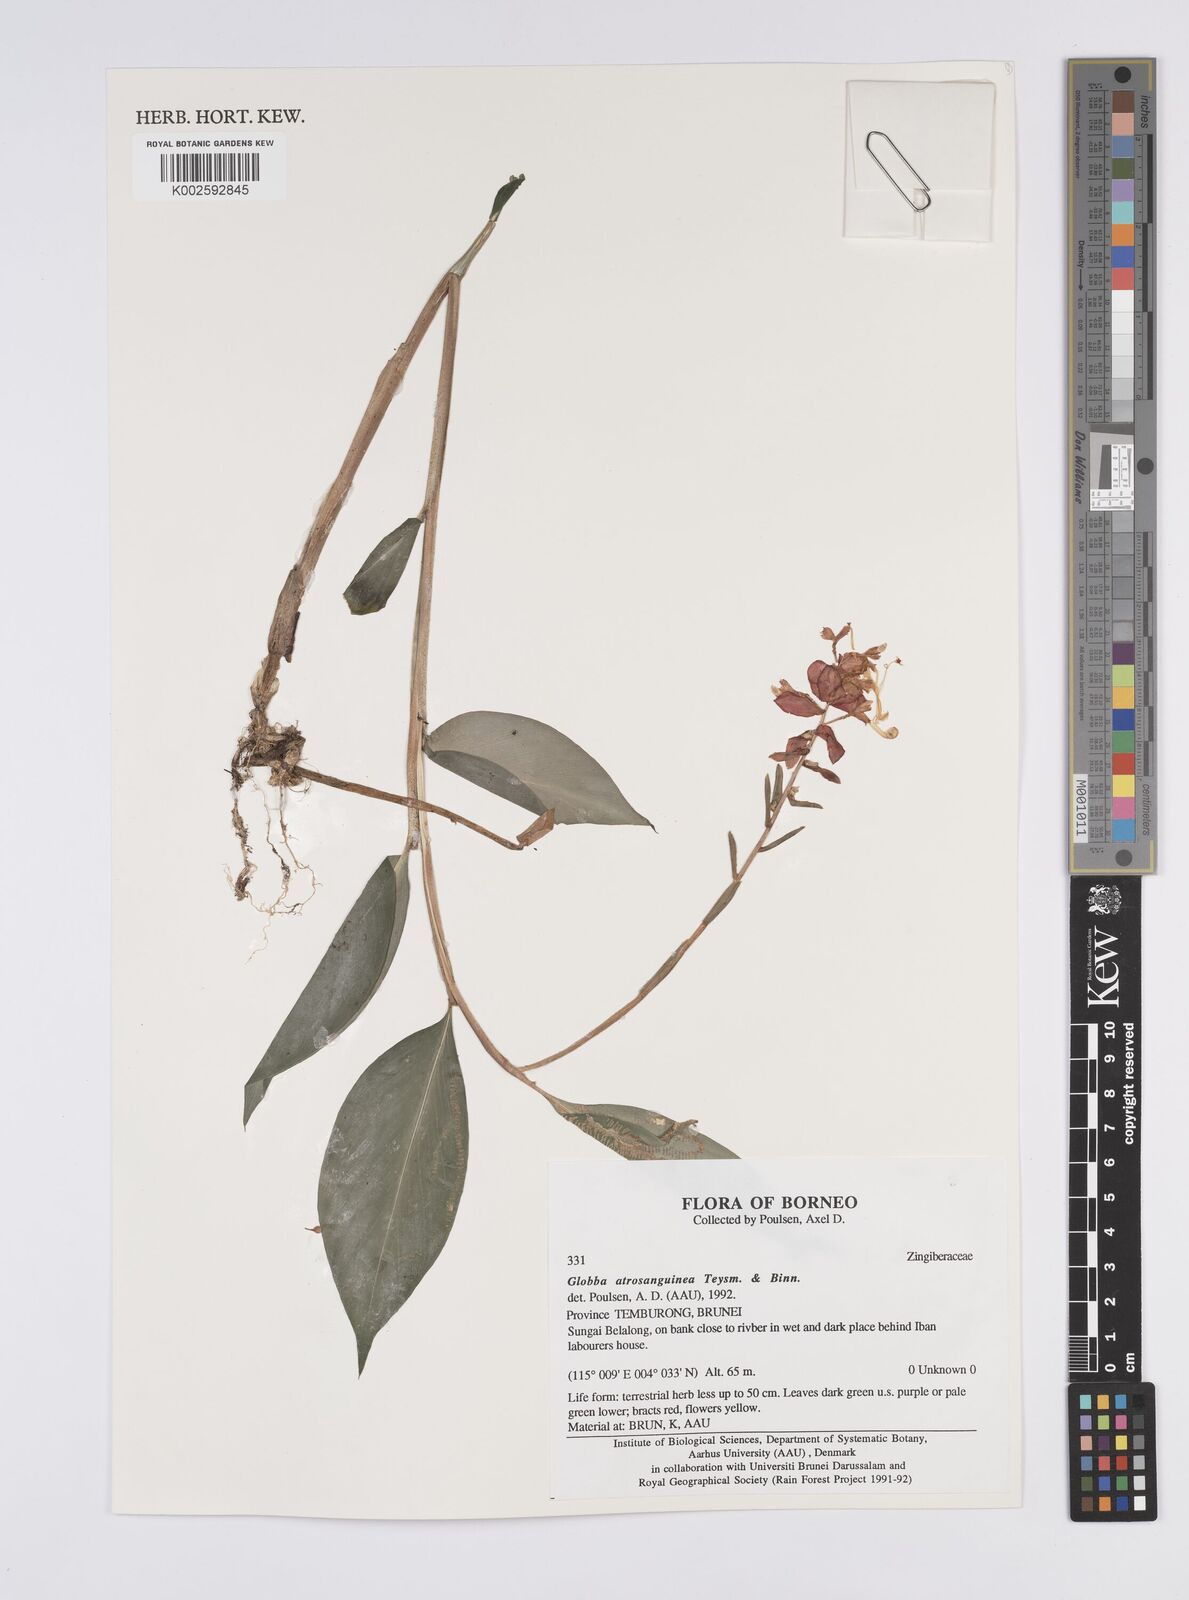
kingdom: Plantae
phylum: Tracheophyta
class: Liliopsida
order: Zingiberales
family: Zingiberaceae
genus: Globba
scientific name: Globba atrosanguinea
